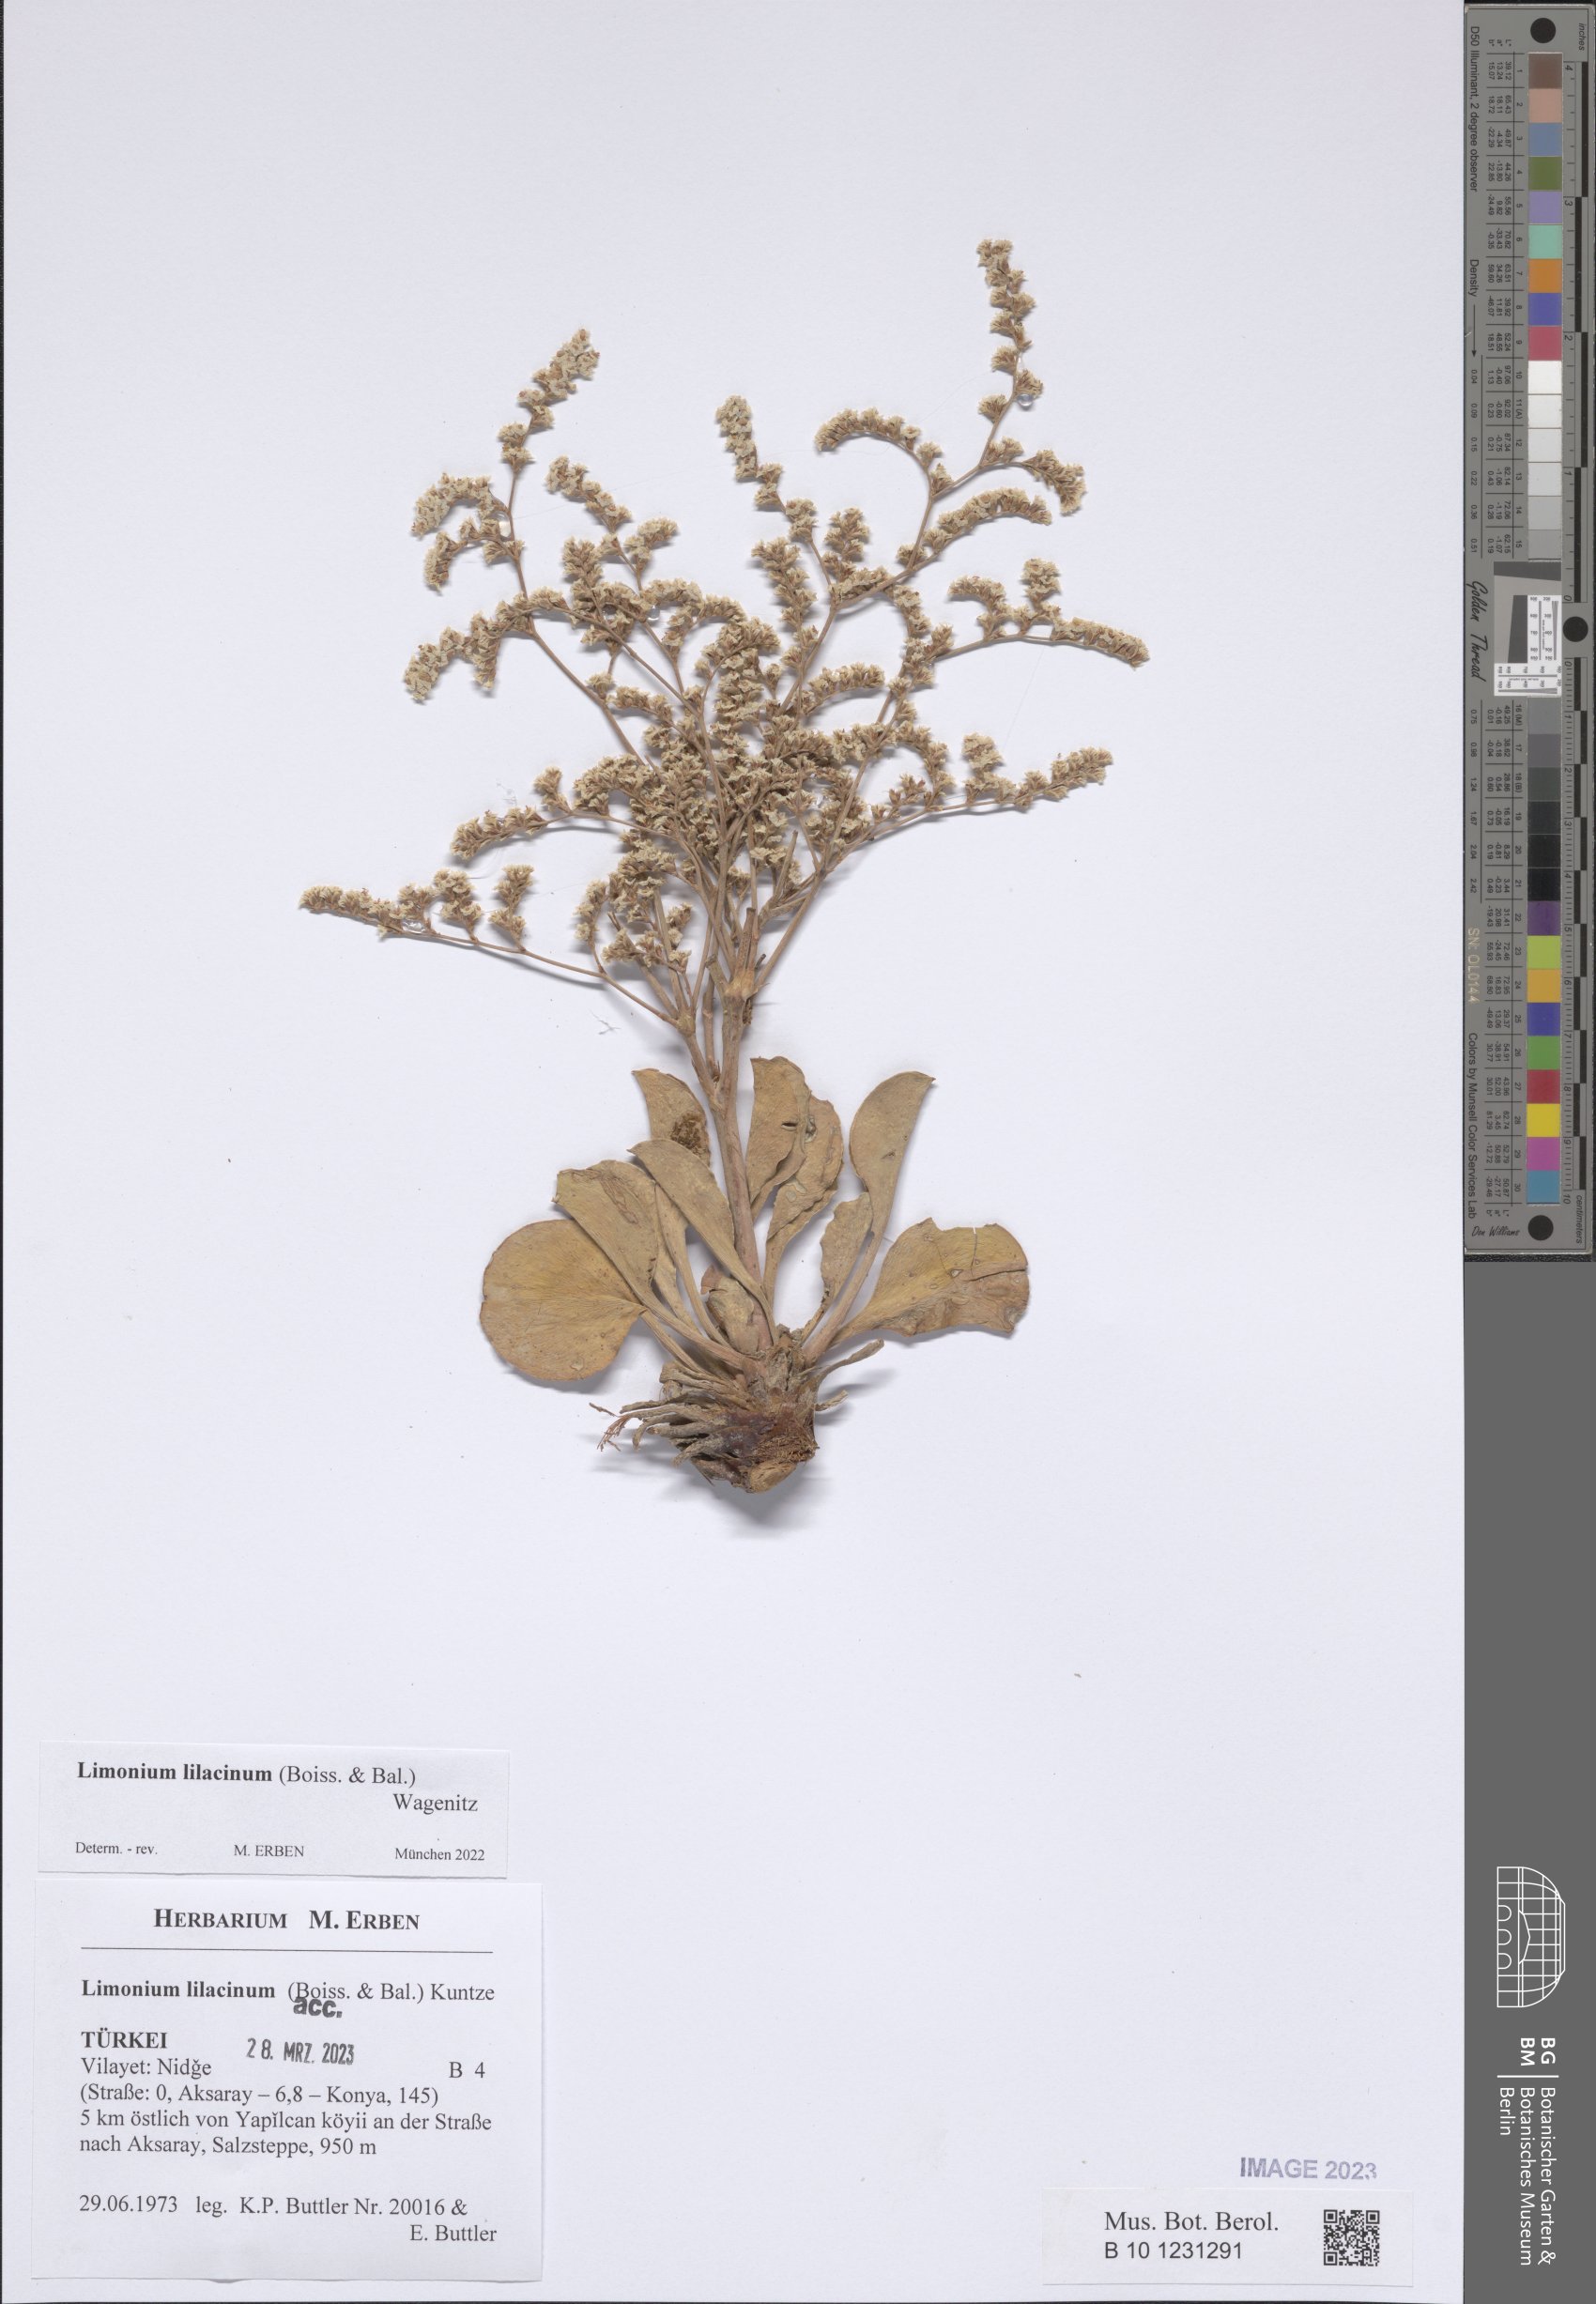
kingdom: Plantae
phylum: Tracheophyta
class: Magnoliopsida
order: Caryophyllales
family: Plumbaginaceae
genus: Limonium
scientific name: Limonium lilacinum
